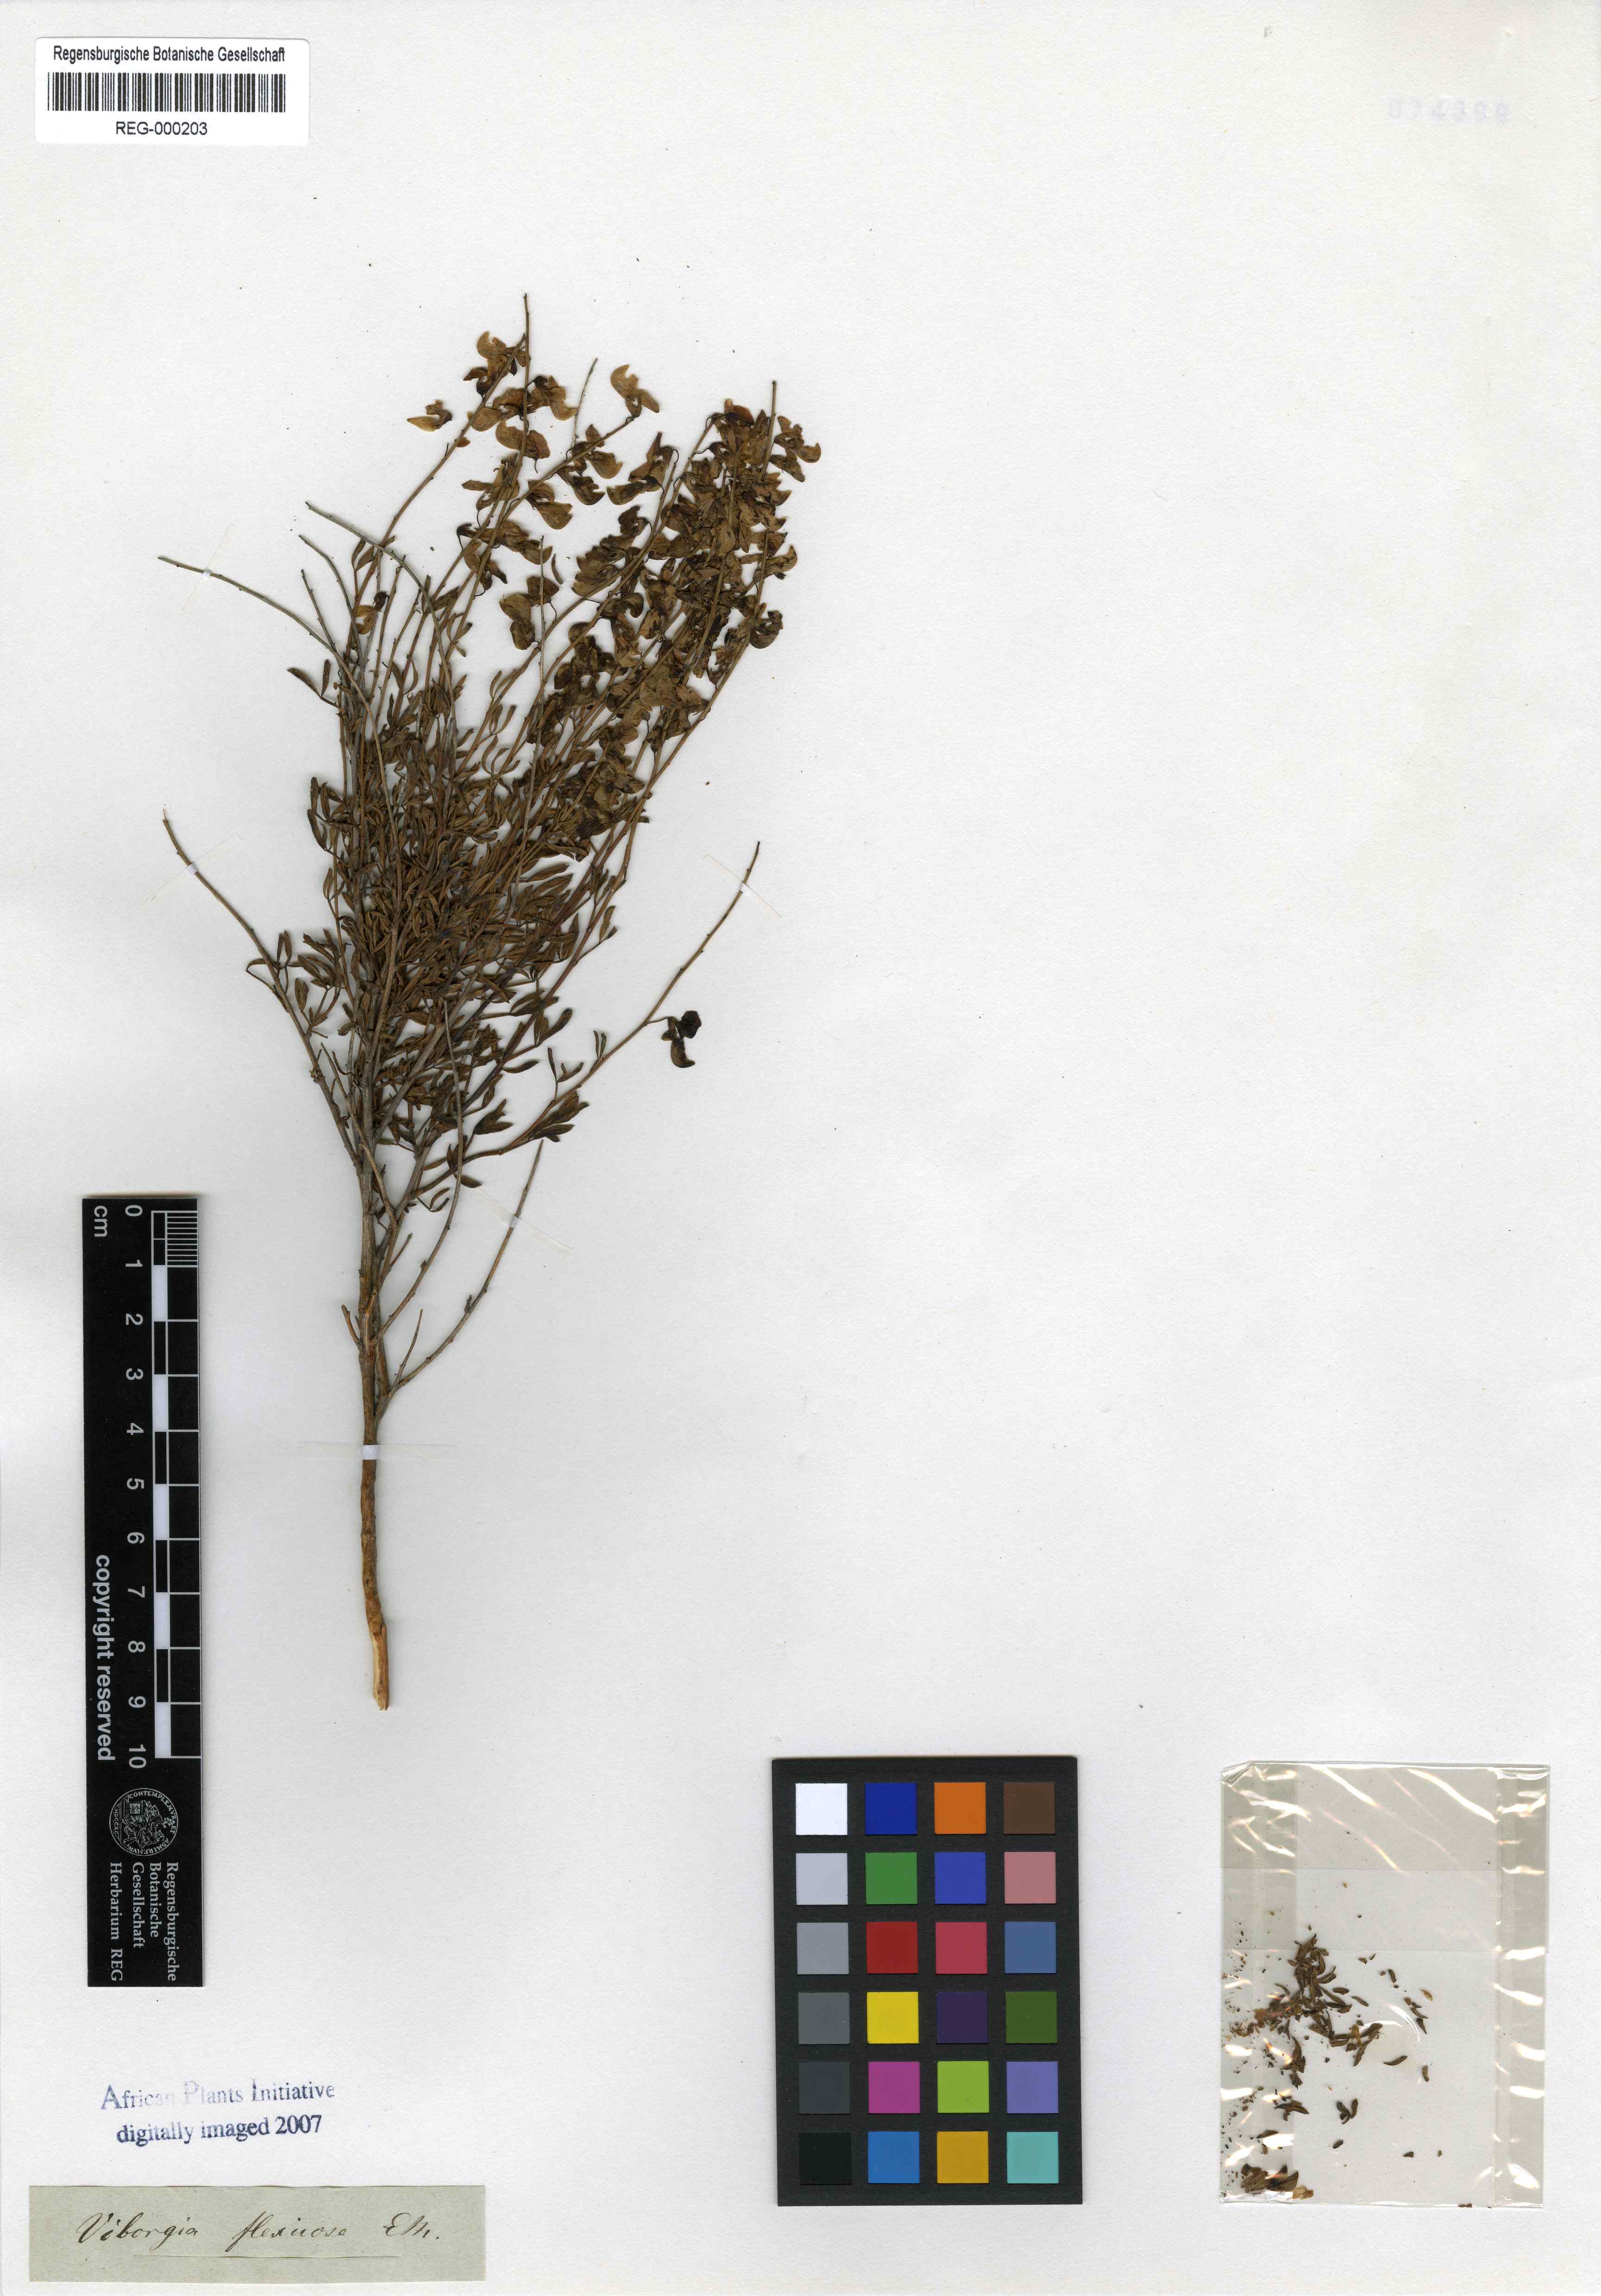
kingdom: Plantae
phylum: Tracheophyta
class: Magnoliopsida
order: Fabales
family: Fabaceae
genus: Wiborgia
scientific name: Wiborgia fusca
